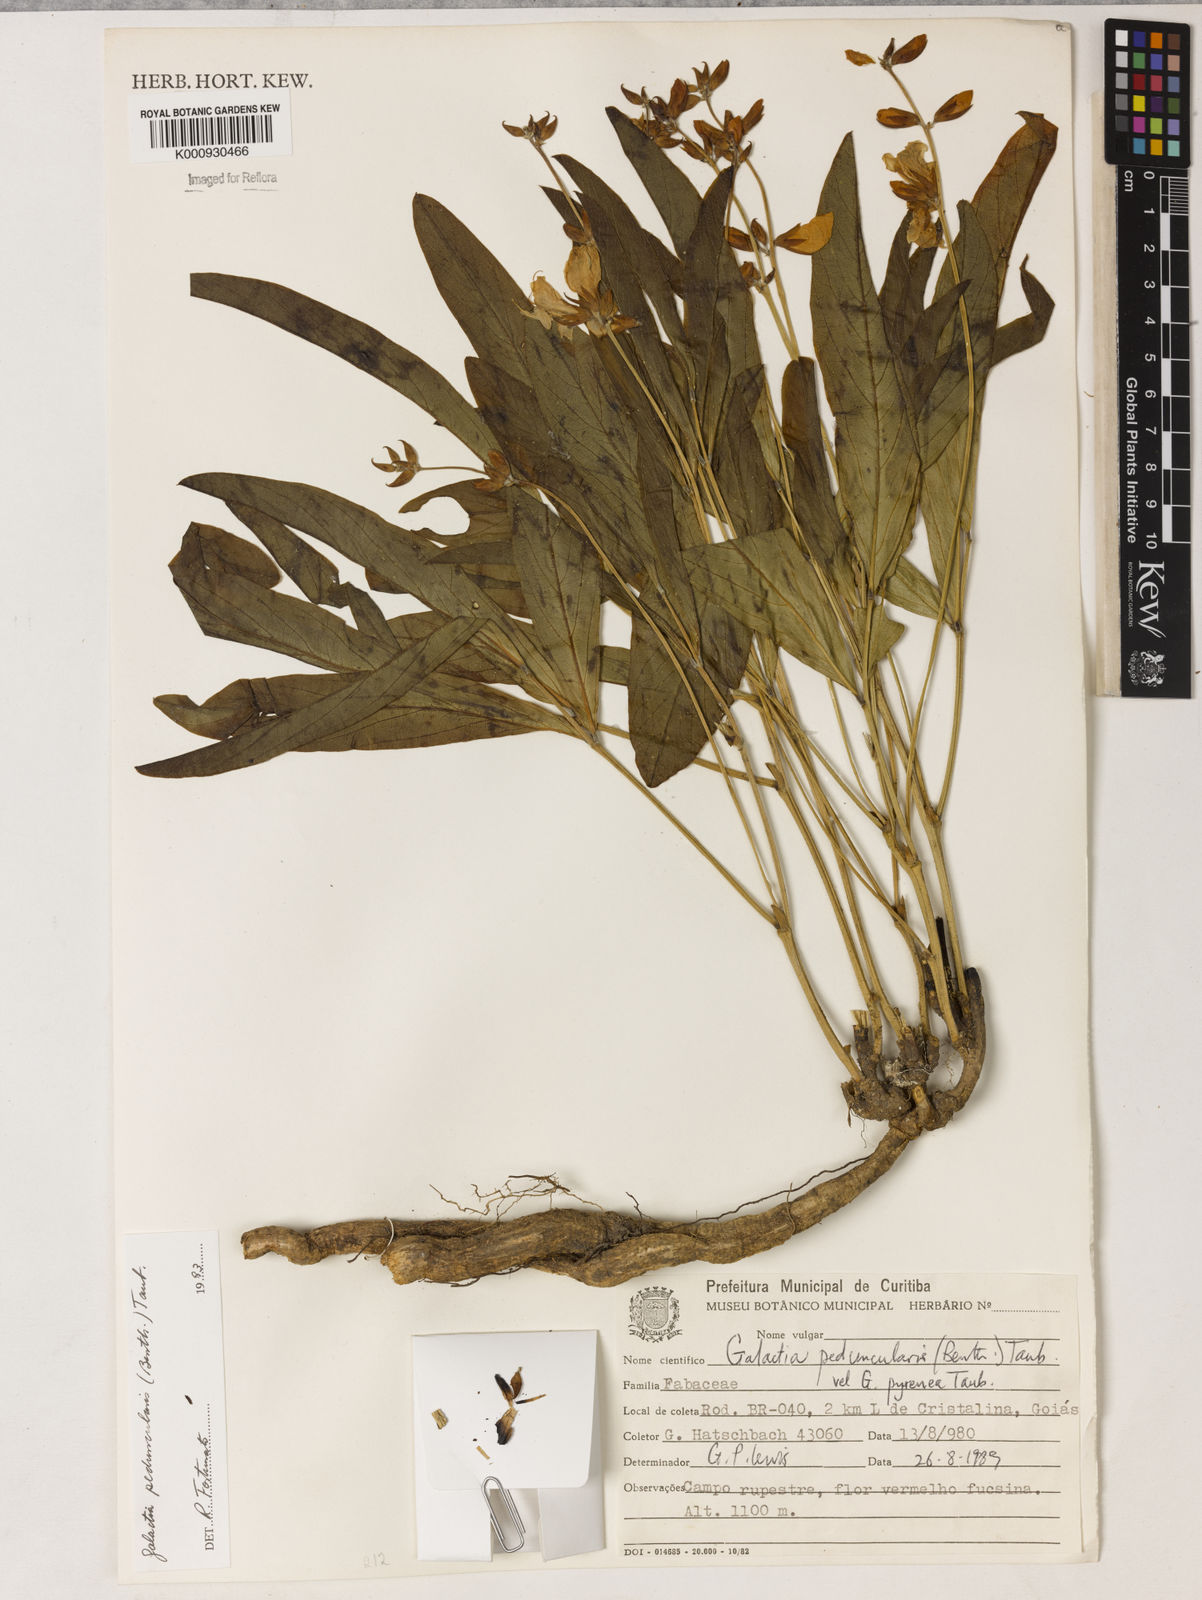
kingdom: Plantae
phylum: Tracheophyta
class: Magnoliopsida
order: Fabales
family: Fabaceae
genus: Galactia
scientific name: Galactia
